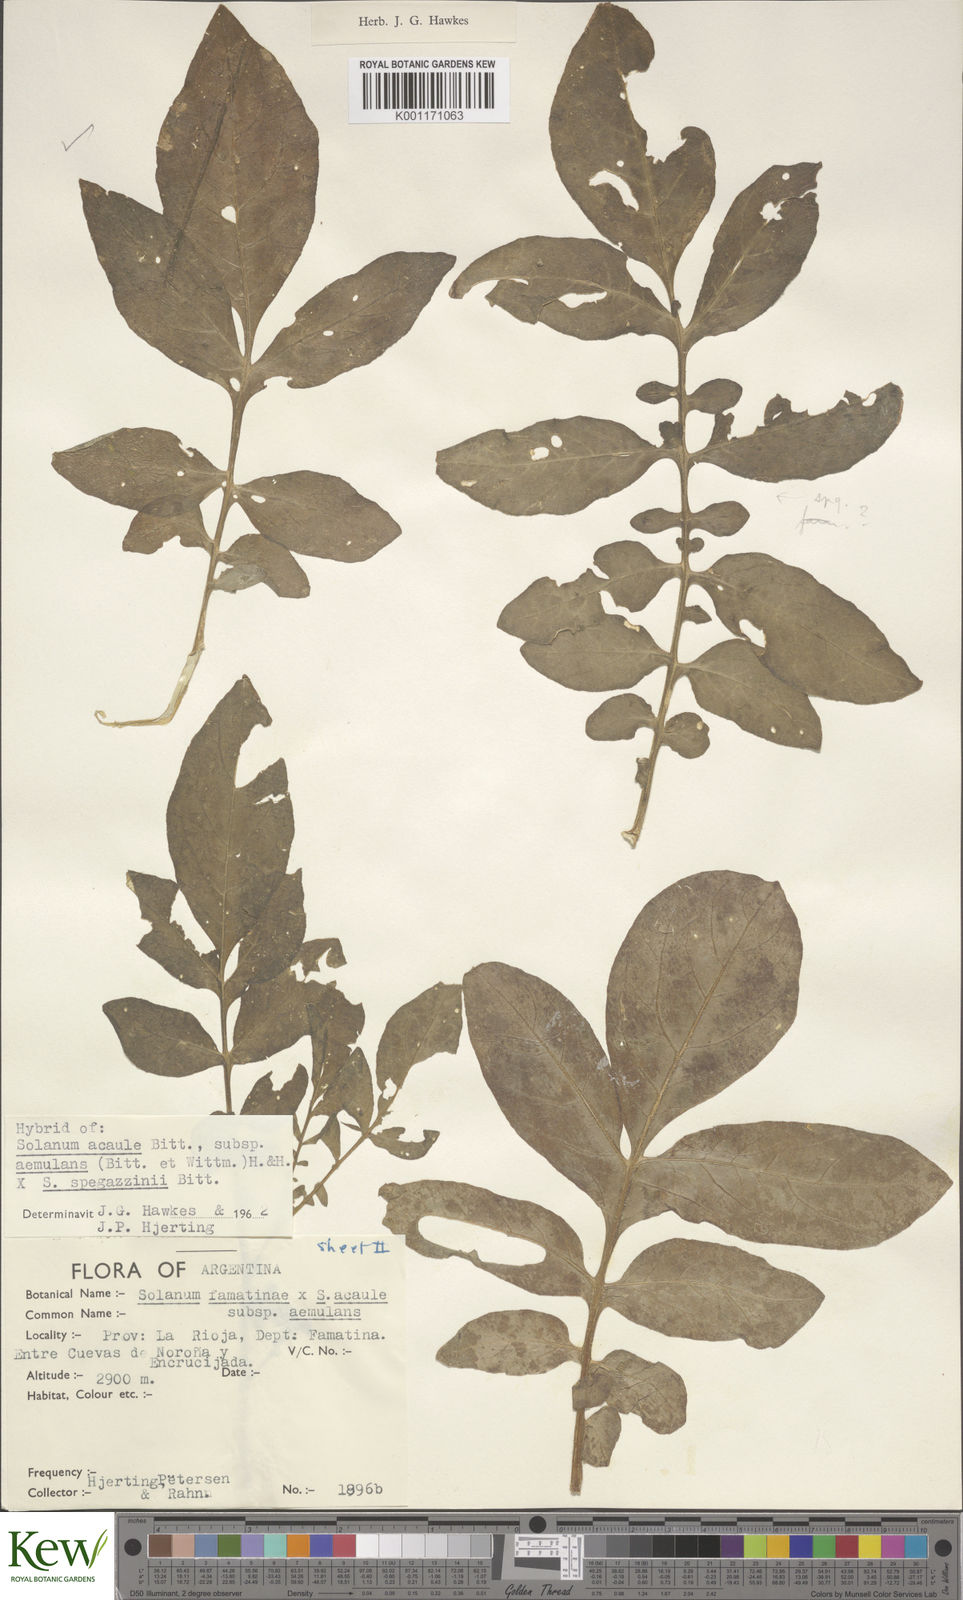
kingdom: Plantae
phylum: Tracheophyta
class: Magnoliopsida
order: Solanales
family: Solanaceae
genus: Solanum
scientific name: Solanum aemulans
